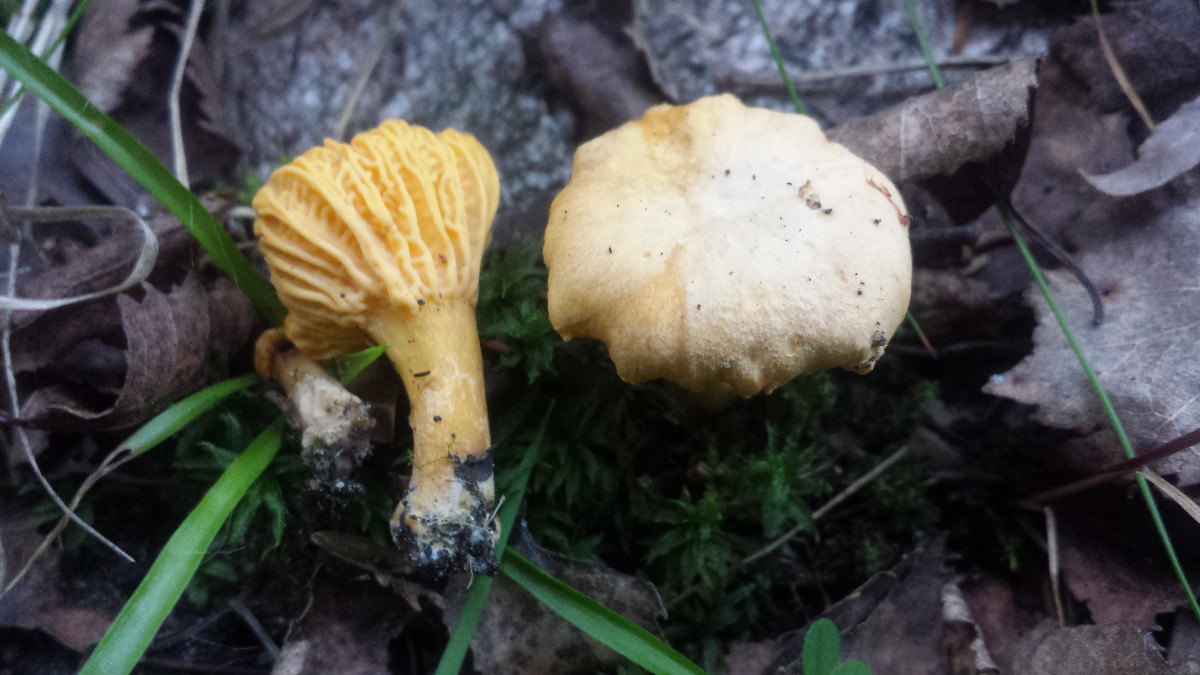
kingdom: Fungi
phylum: Basidiomycota
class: Agaricomycetes
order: Cantharellales
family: Hydnaceae
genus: Cantharellus
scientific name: Cantharellus cibarius
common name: almindelig kantarel
